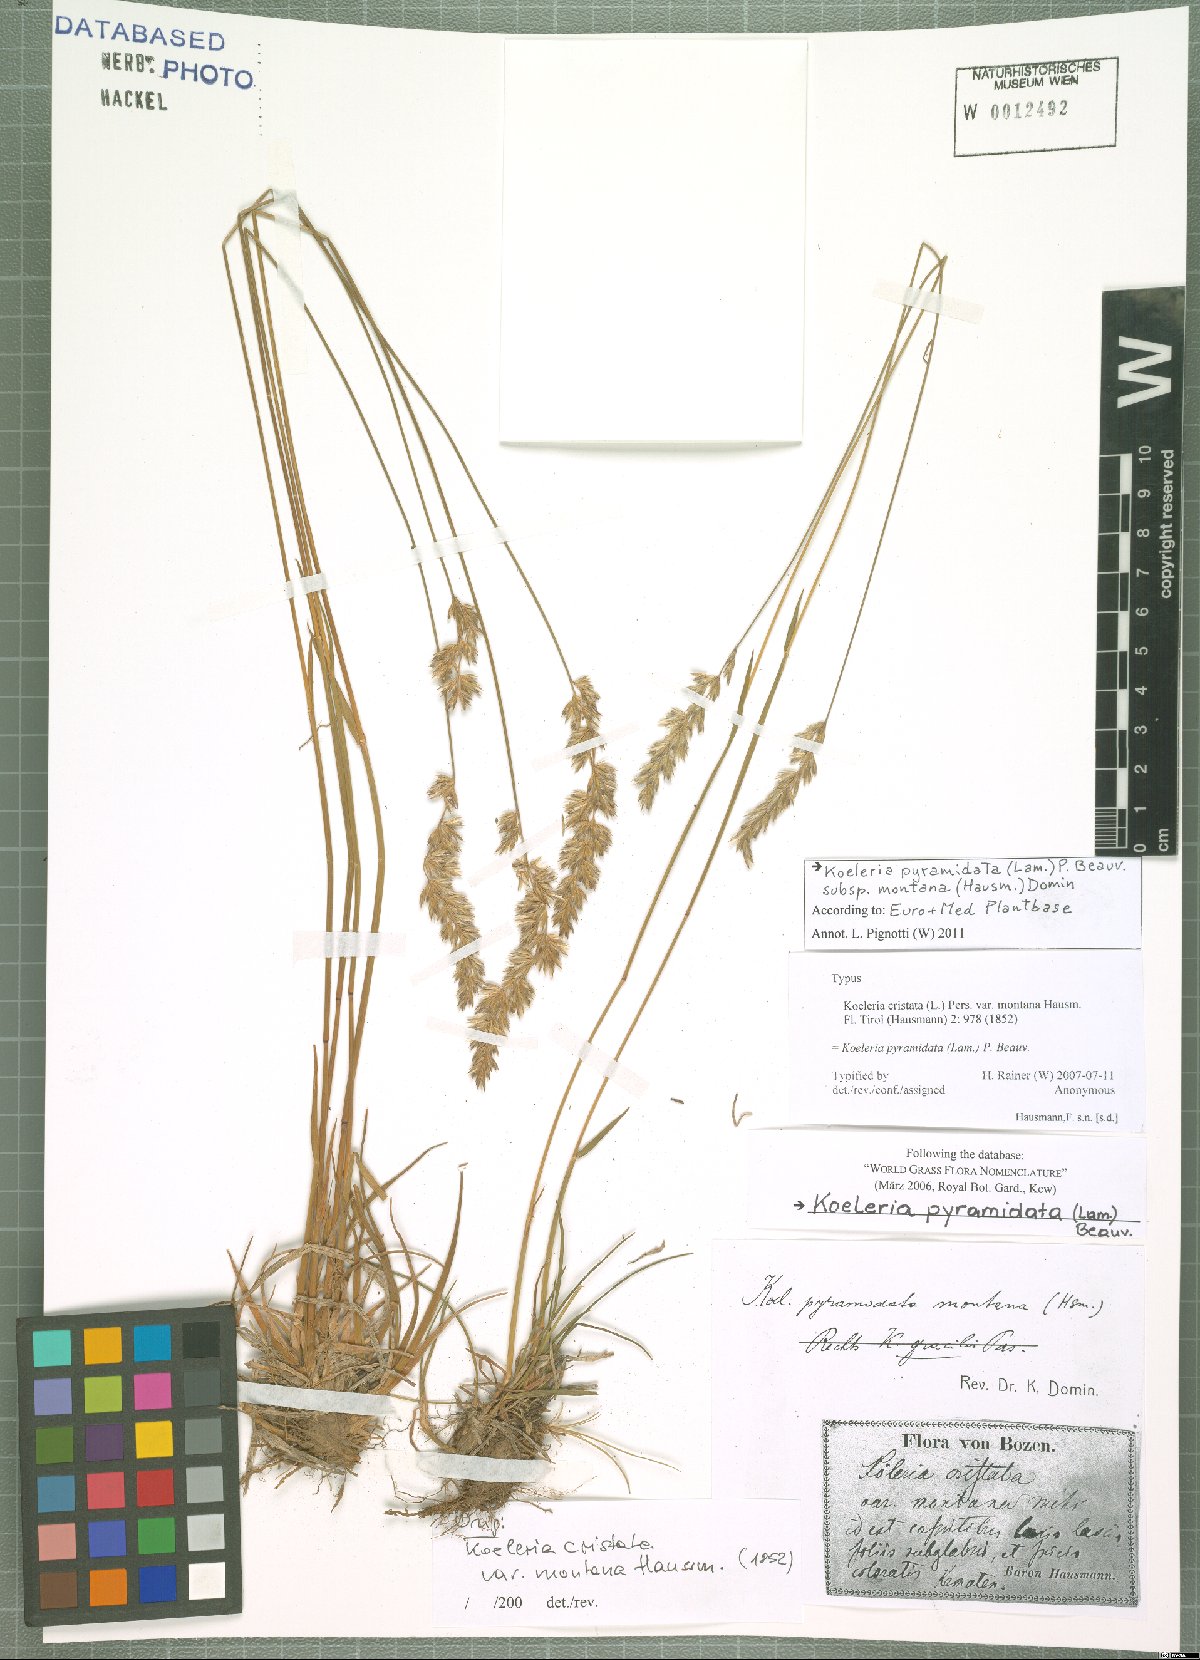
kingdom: Plantae
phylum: Tracheophyta
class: Liliopsida
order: Poales
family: Poaceae
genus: Koeleria
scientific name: Koeleria pyramidata
